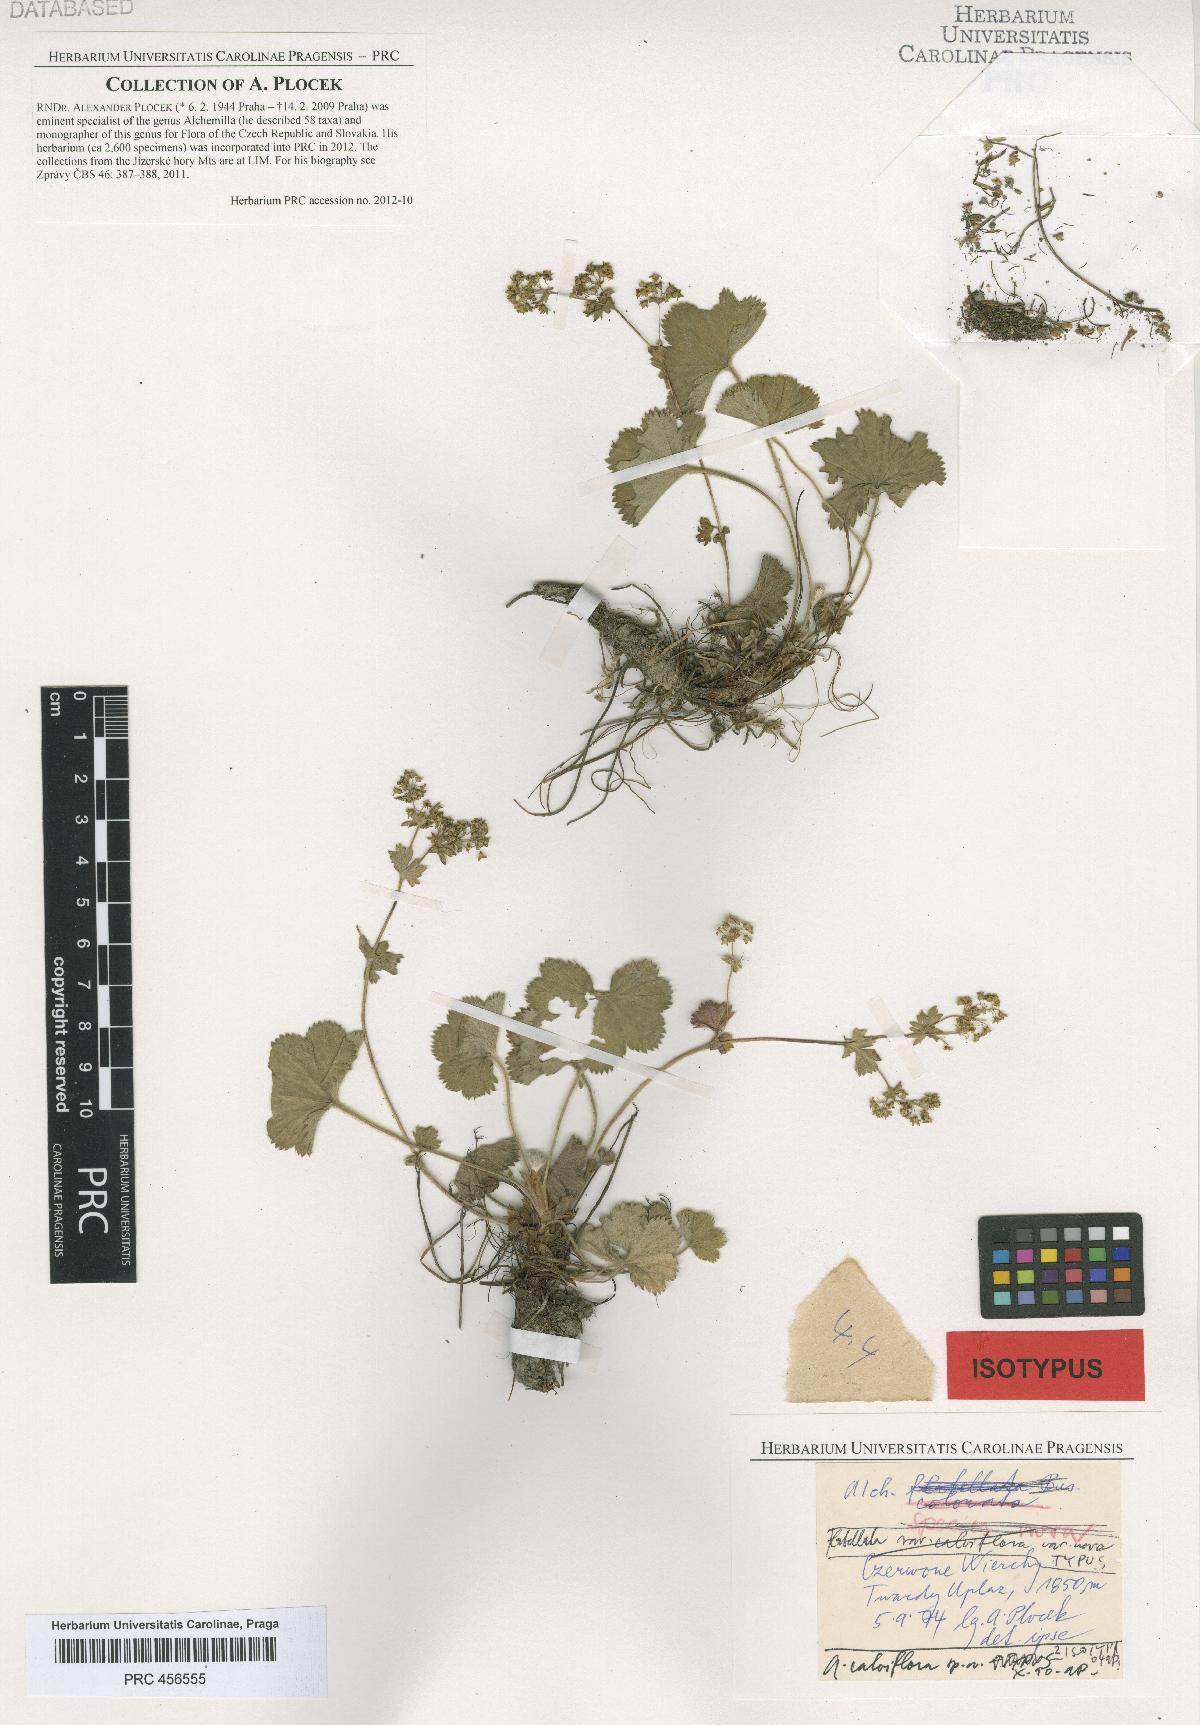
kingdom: Plantae
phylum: Tracheophyta
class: Magnoliopsida
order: Rosales
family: Rosaceae
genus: Alchemilla
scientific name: Alchemilla calviflora
